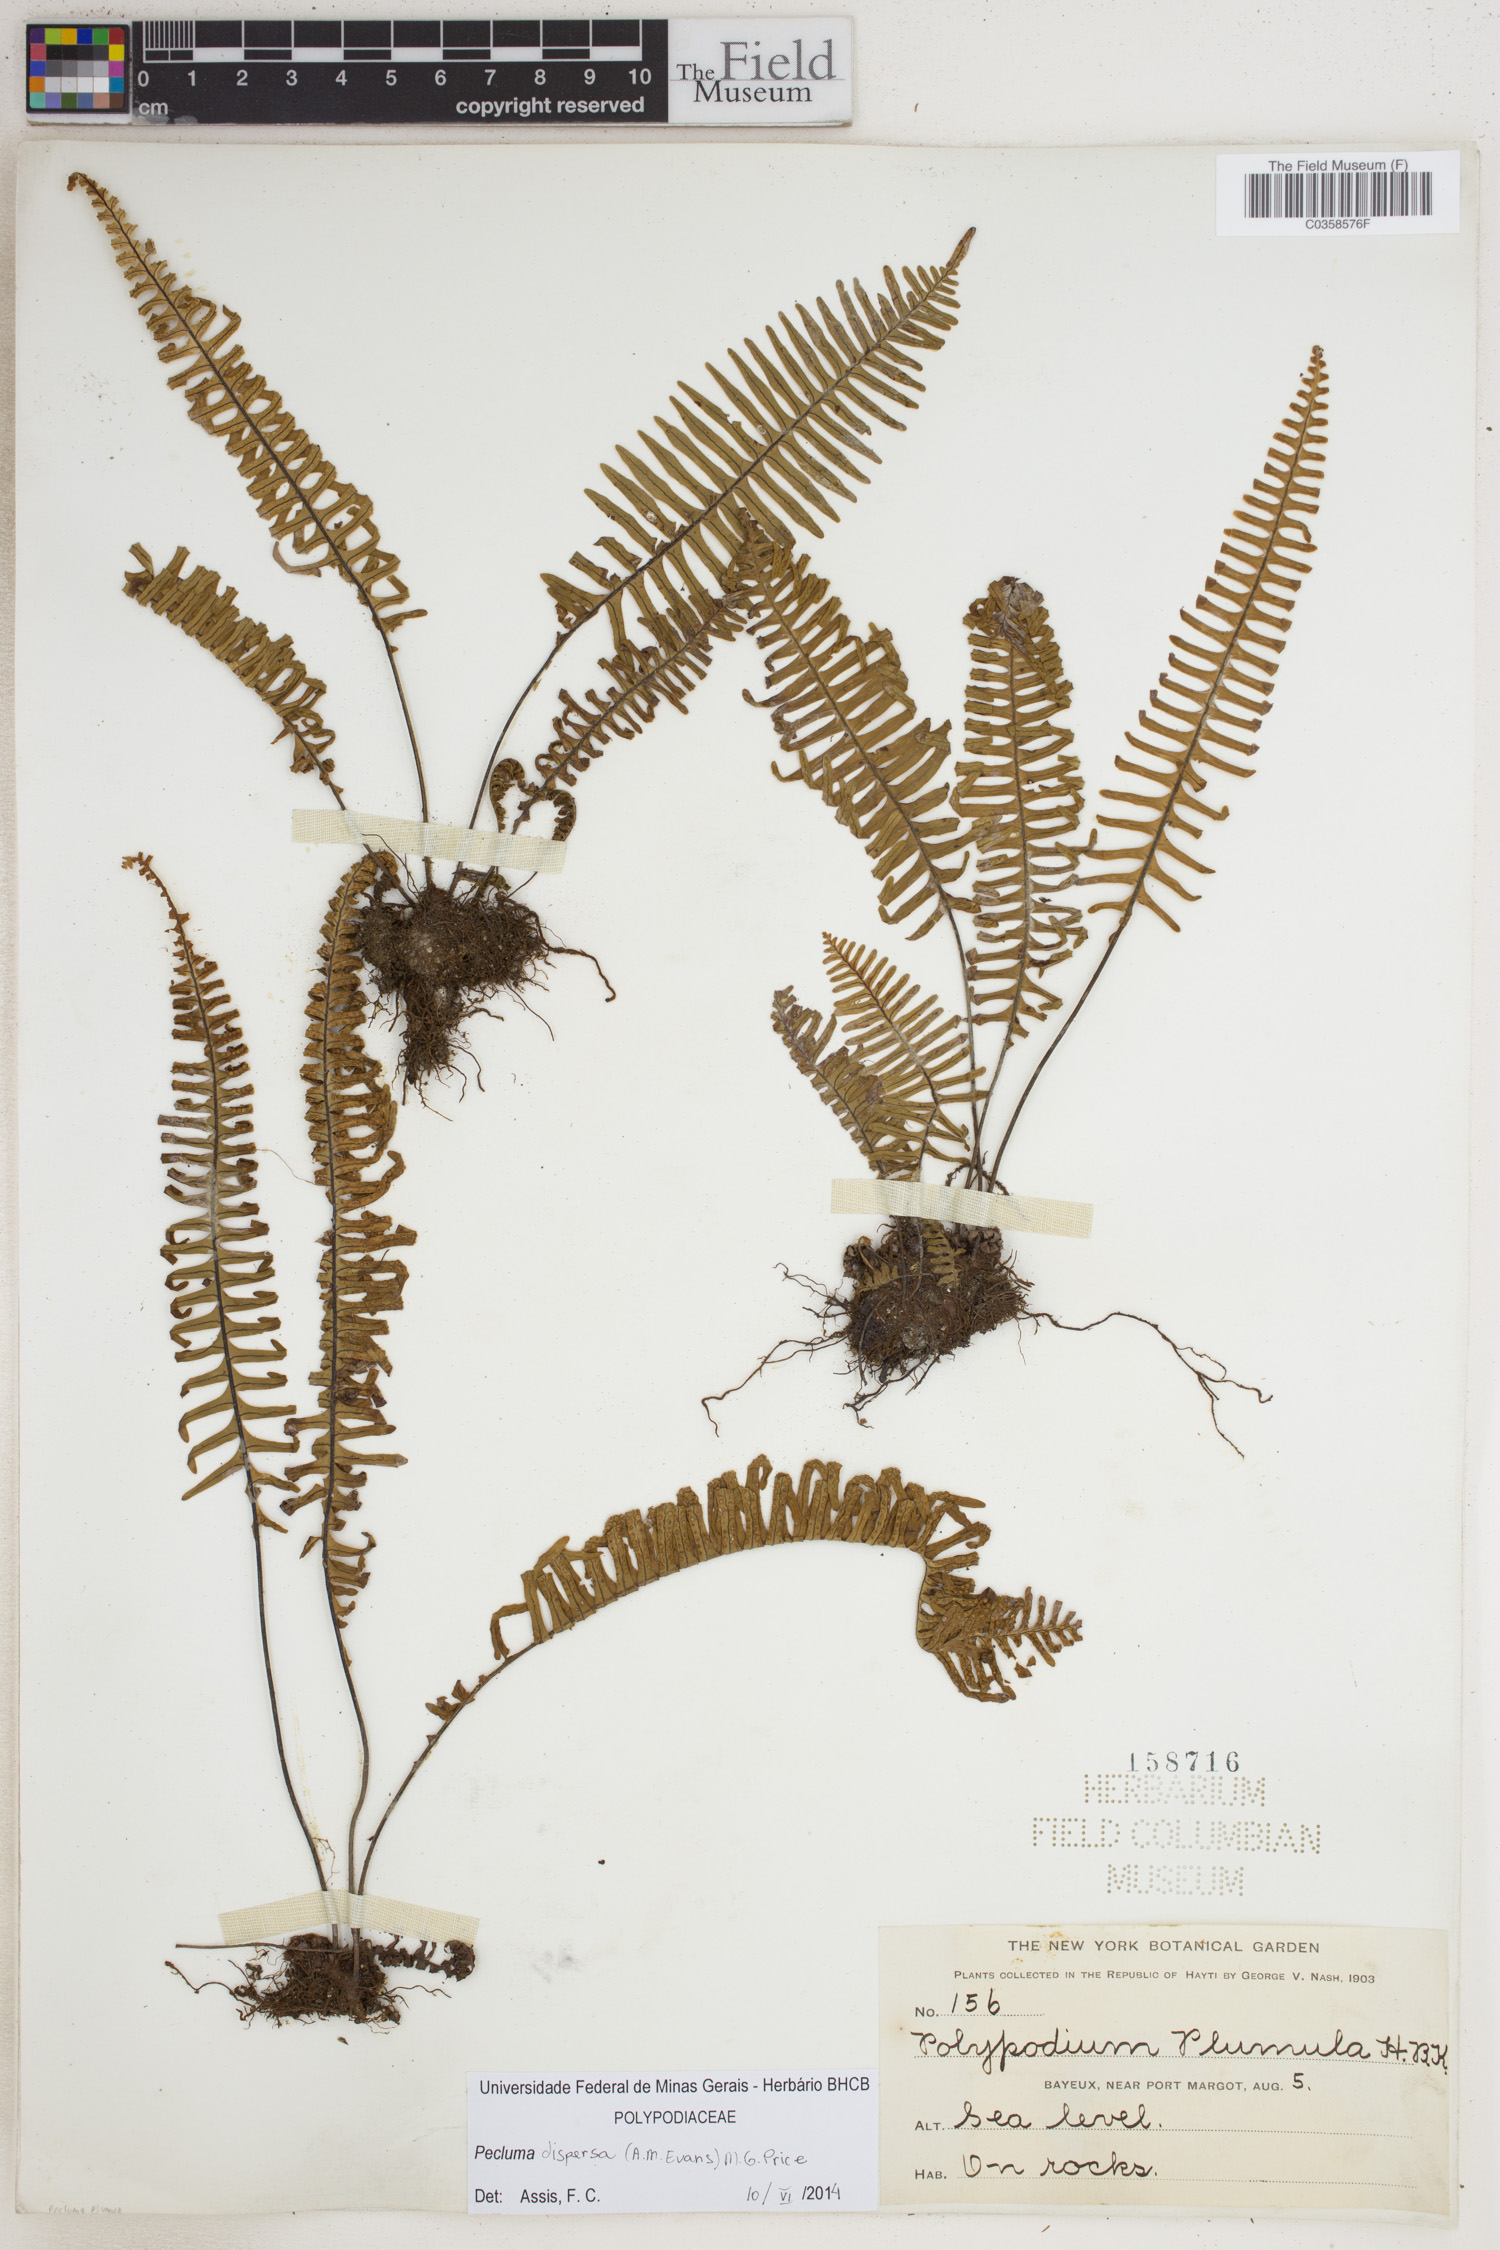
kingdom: Plantae
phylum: Tracheophyta
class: Polypodiopsida
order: Polypodiales
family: Polypodiaceae
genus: Pecluma
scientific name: Pecluma dispersa
